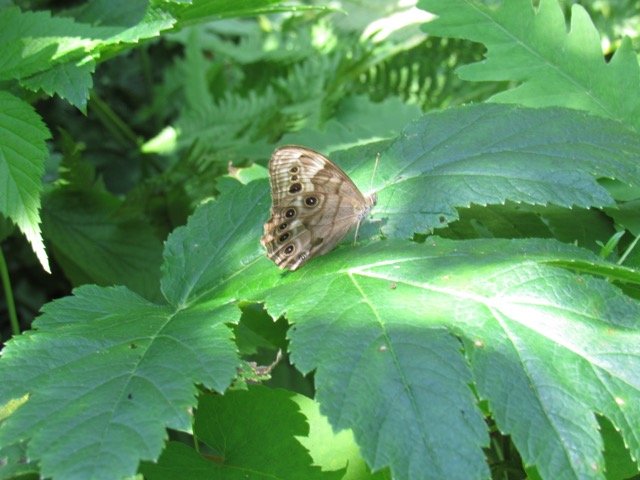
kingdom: Animalia
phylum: Arthropoda
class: Insecta
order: Lepidoptera
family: Nymphalidae
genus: Lethe
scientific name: Lethe anthedon
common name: Northern Pearly-Eye
